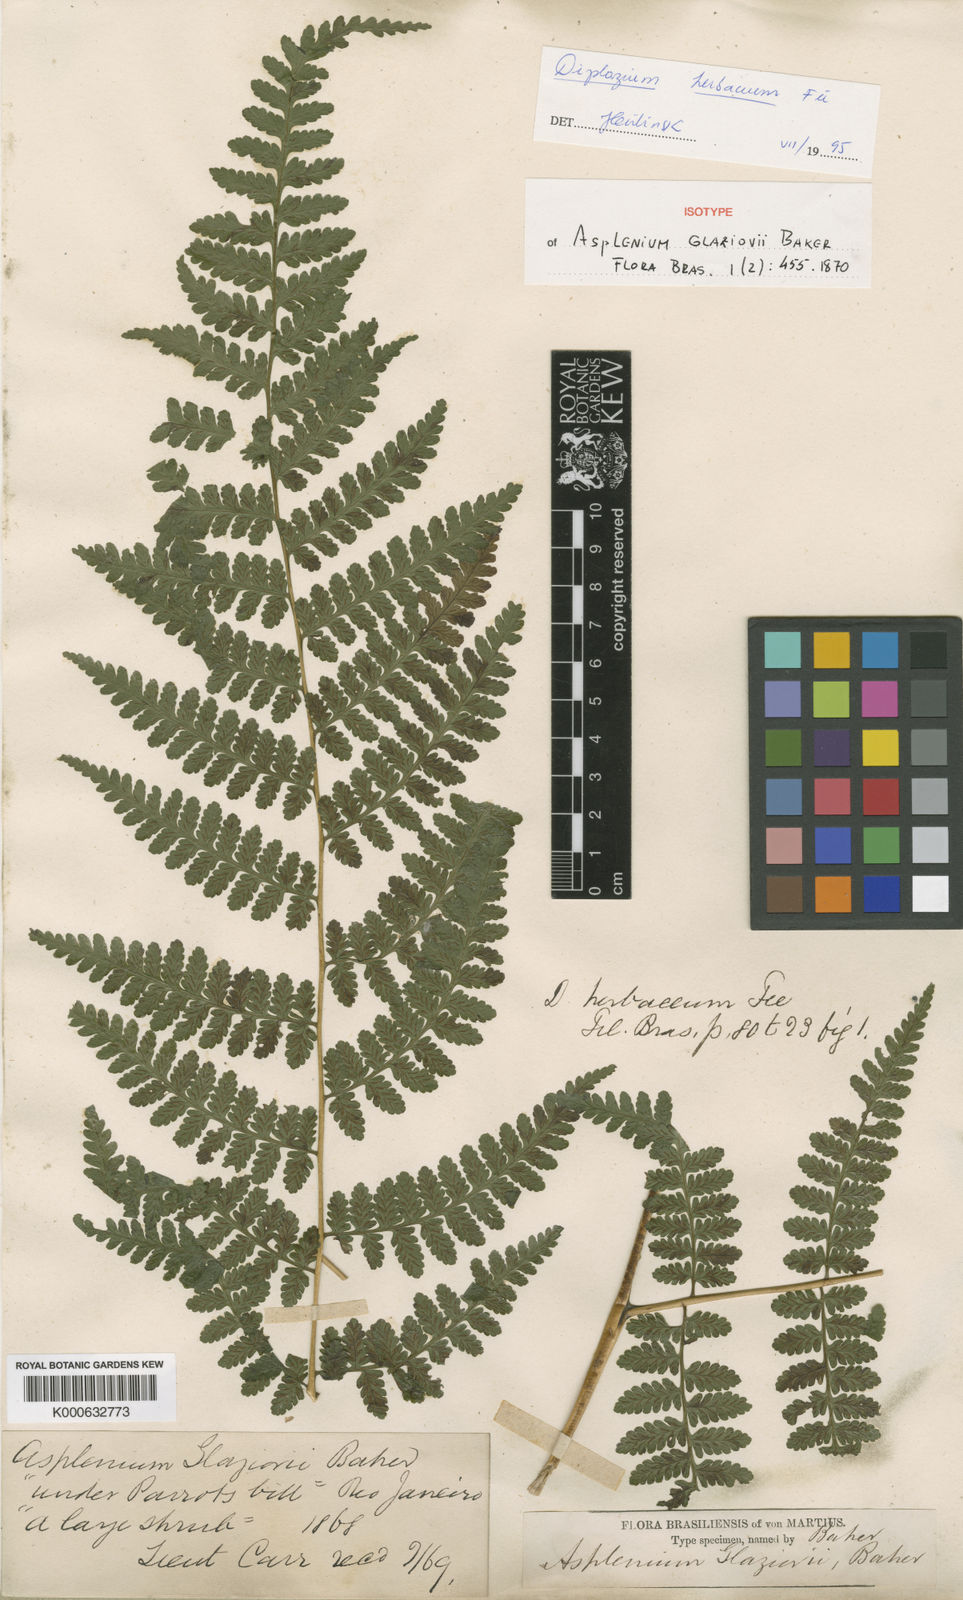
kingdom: Plantae
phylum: Tracheophyta
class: Polypodiopsida
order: Polypodiales
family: Athyriaceae
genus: Diplazium
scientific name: Diplazium
